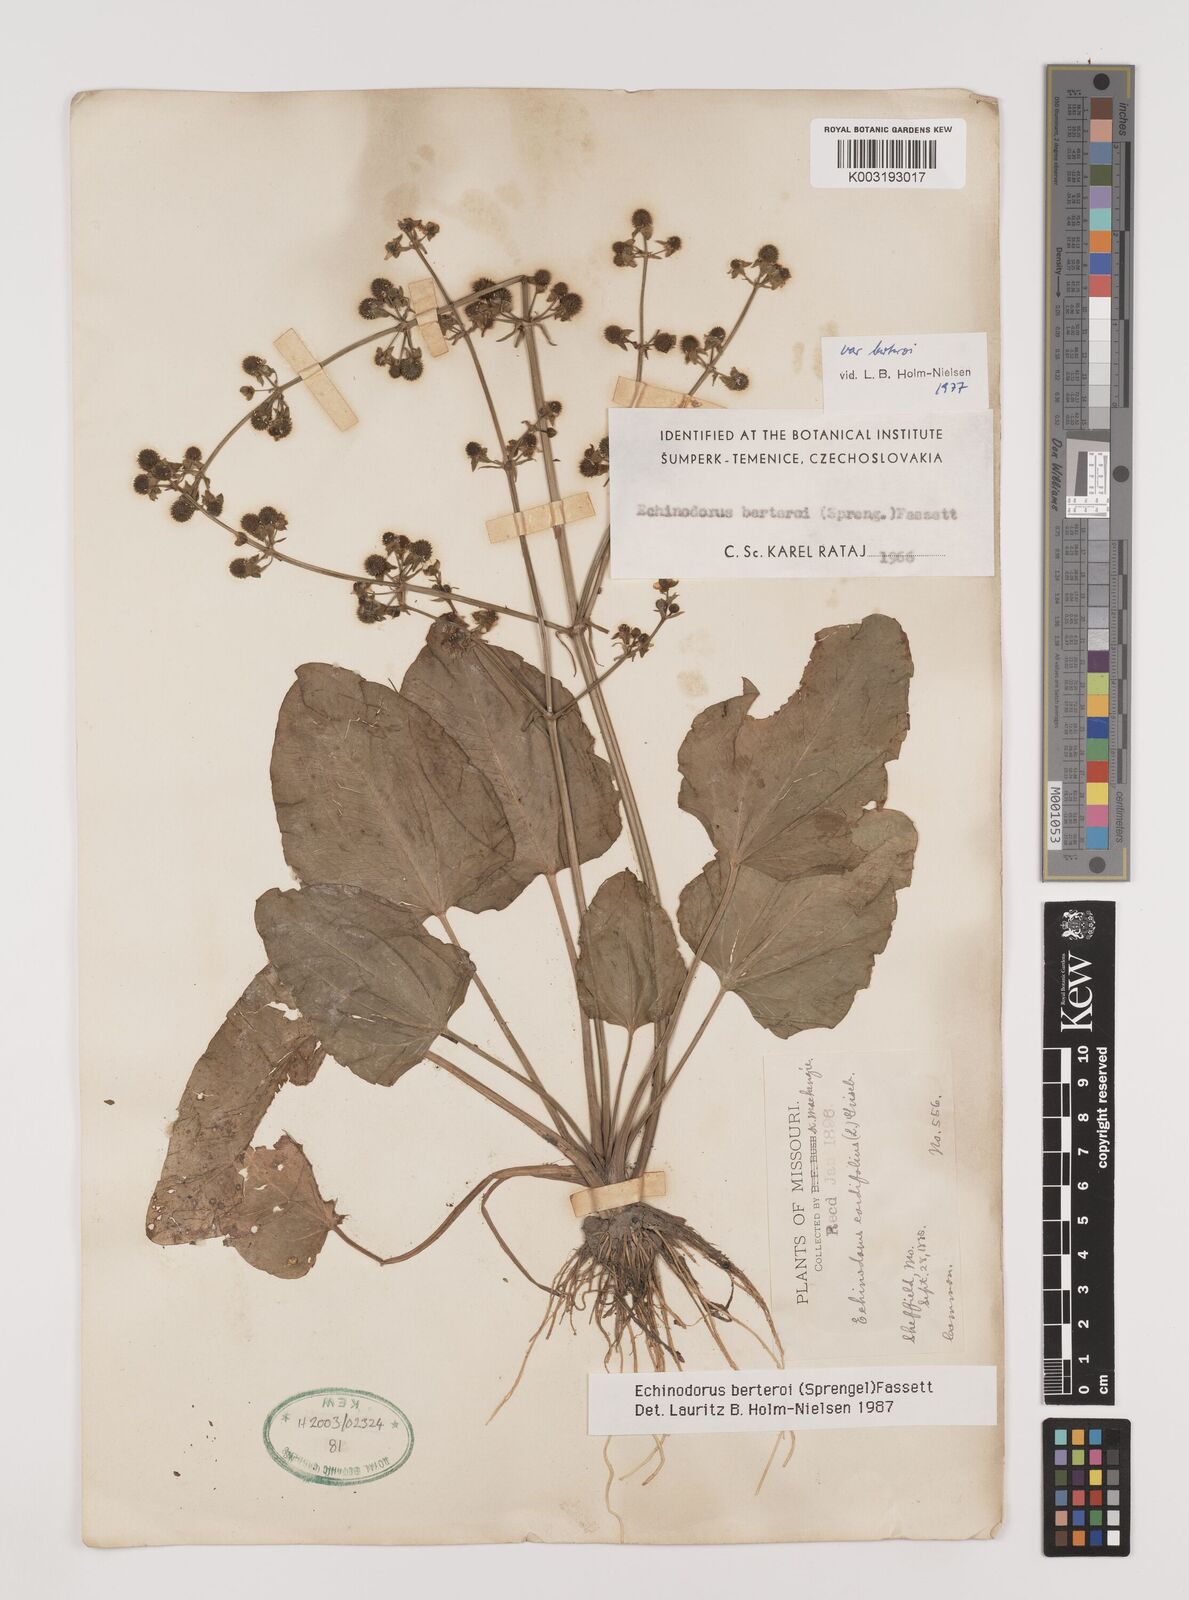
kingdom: Plantae
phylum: Tracheophyta
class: Liliopsida
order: Alismatales
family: Alismataceae
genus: Echinodorus
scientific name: Echinodorus berteroi
